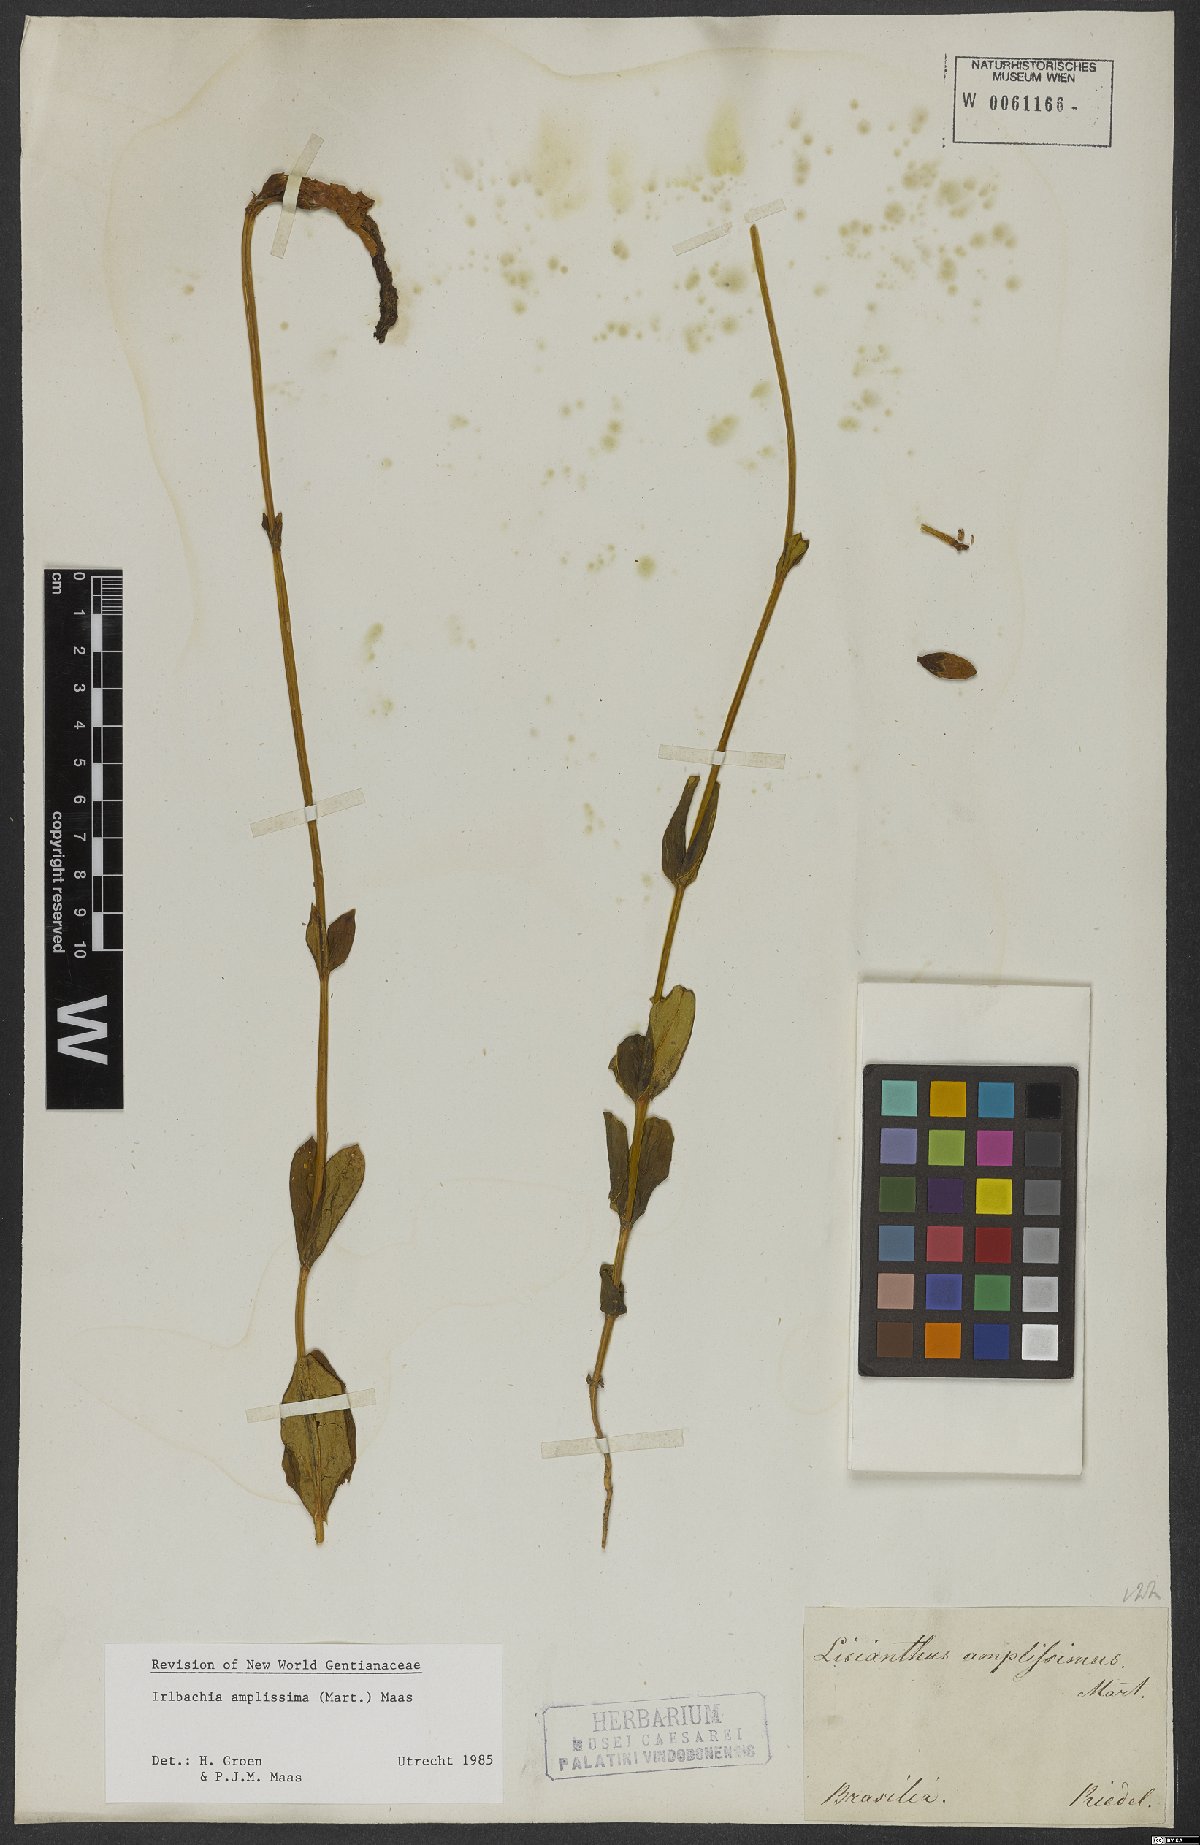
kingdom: Plantae
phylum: Tracheophyta
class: Magnoliopsida
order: Gentianales
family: Gentianaceae
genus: Calolisianthus
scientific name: Calolisianthus amplissimus
